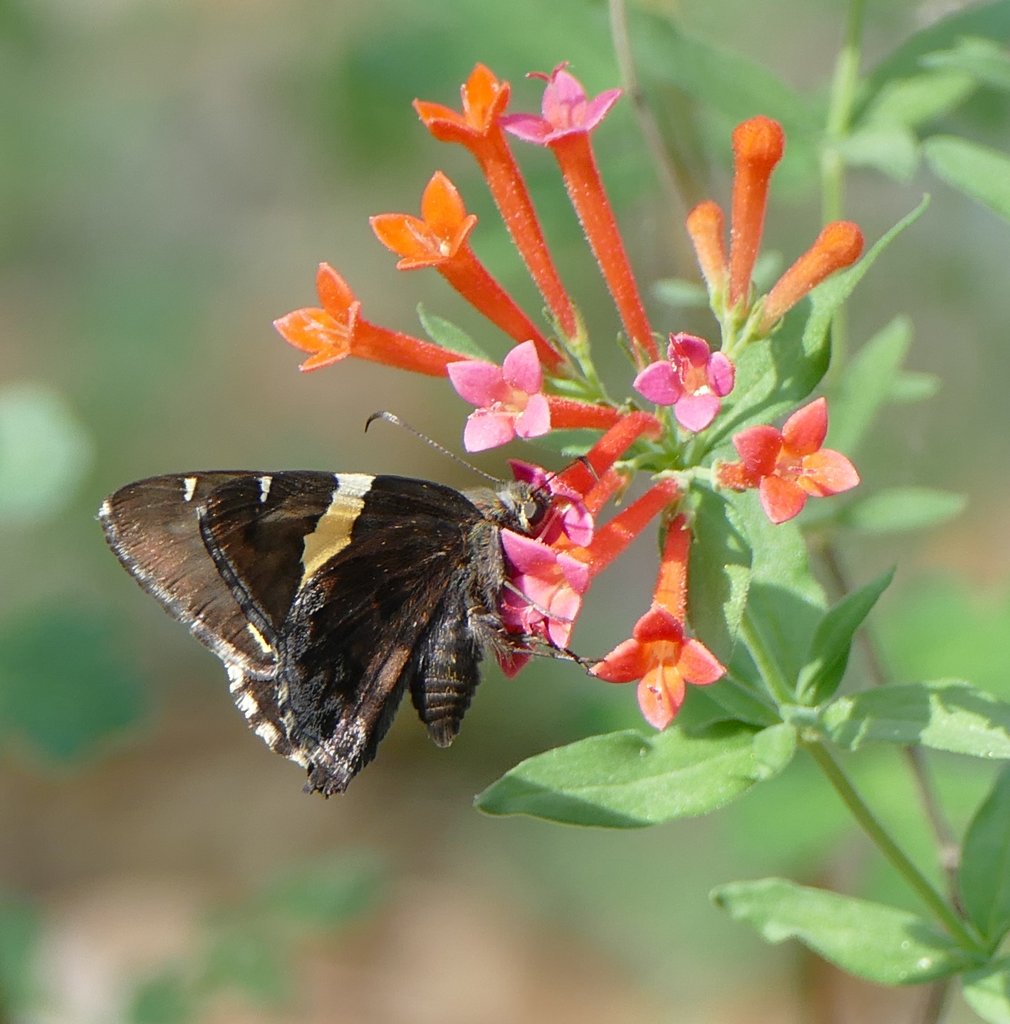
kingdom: Animalia
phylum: Arthropoda
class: Insecta
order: Lepidoptera
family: Hesperiidae
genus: Autochton
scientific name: Autochton cellus
